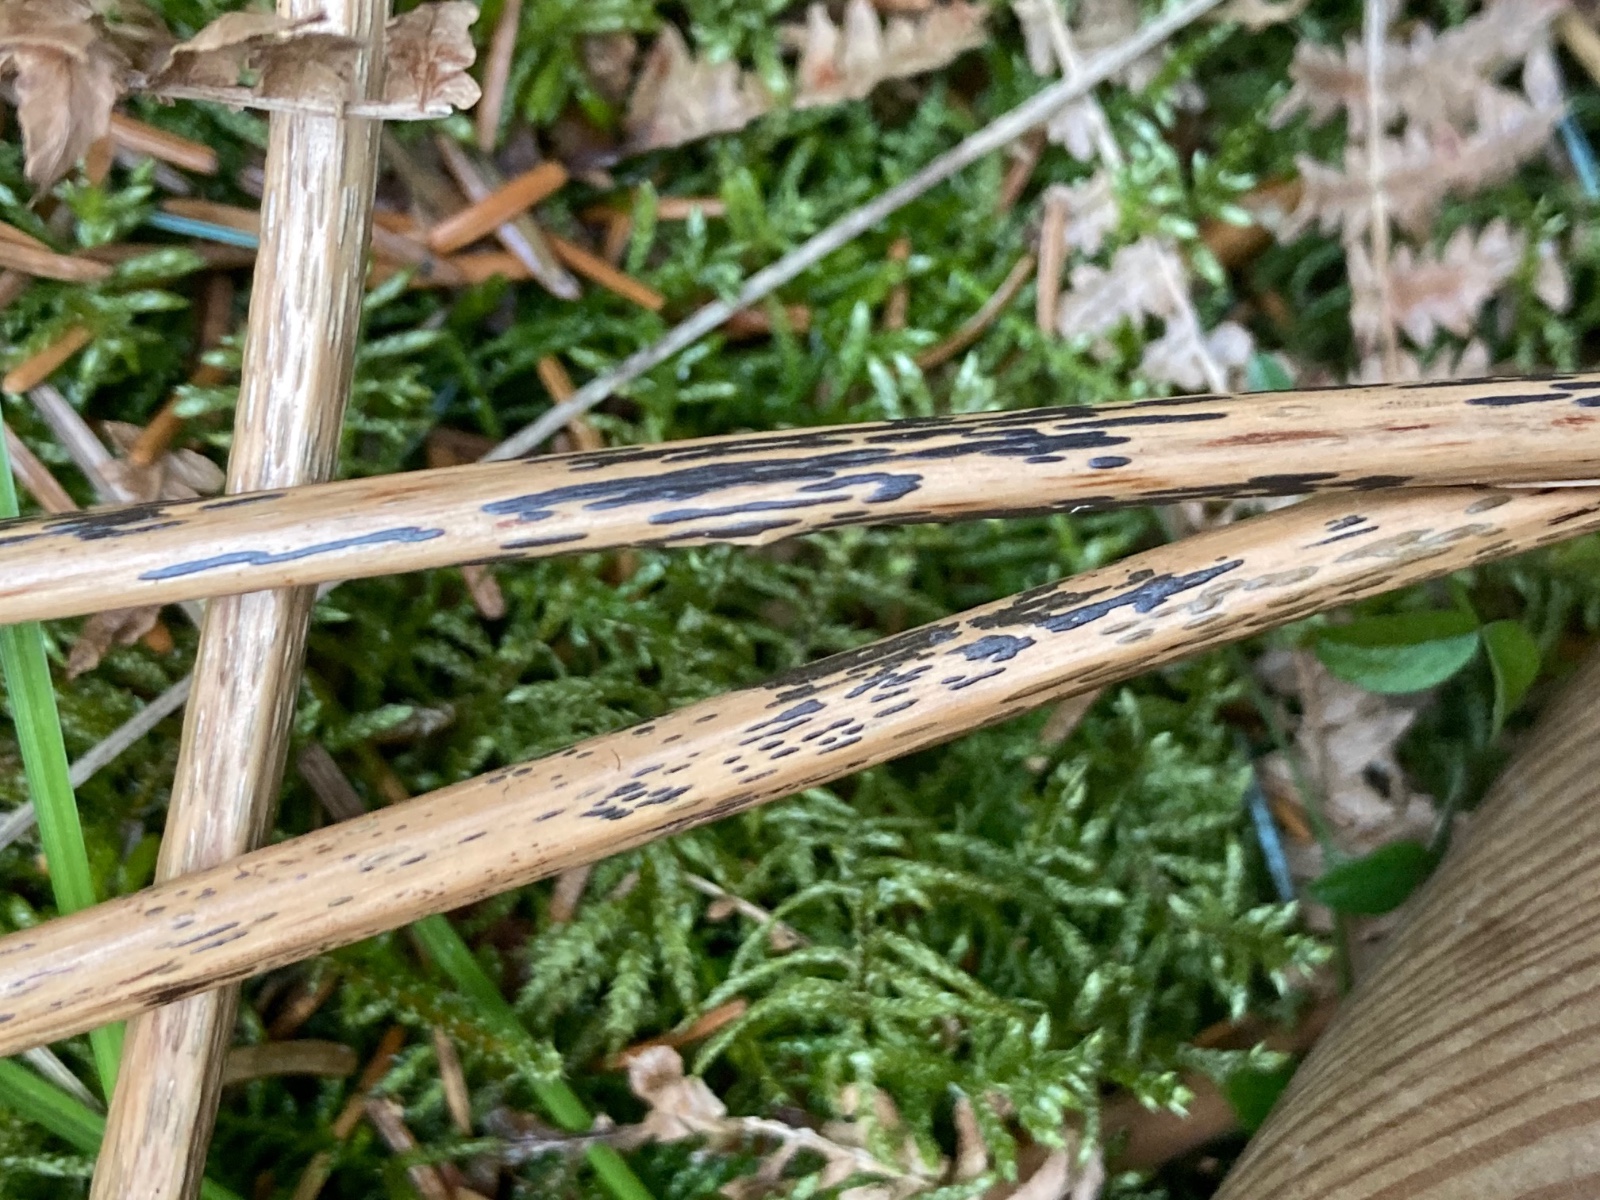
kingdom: Fungi
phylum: Ascomycota
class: Dothideomycetes
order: Pleosporales
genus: Rhopographus
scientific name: Rhopographus filicinus
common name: Bracken map
